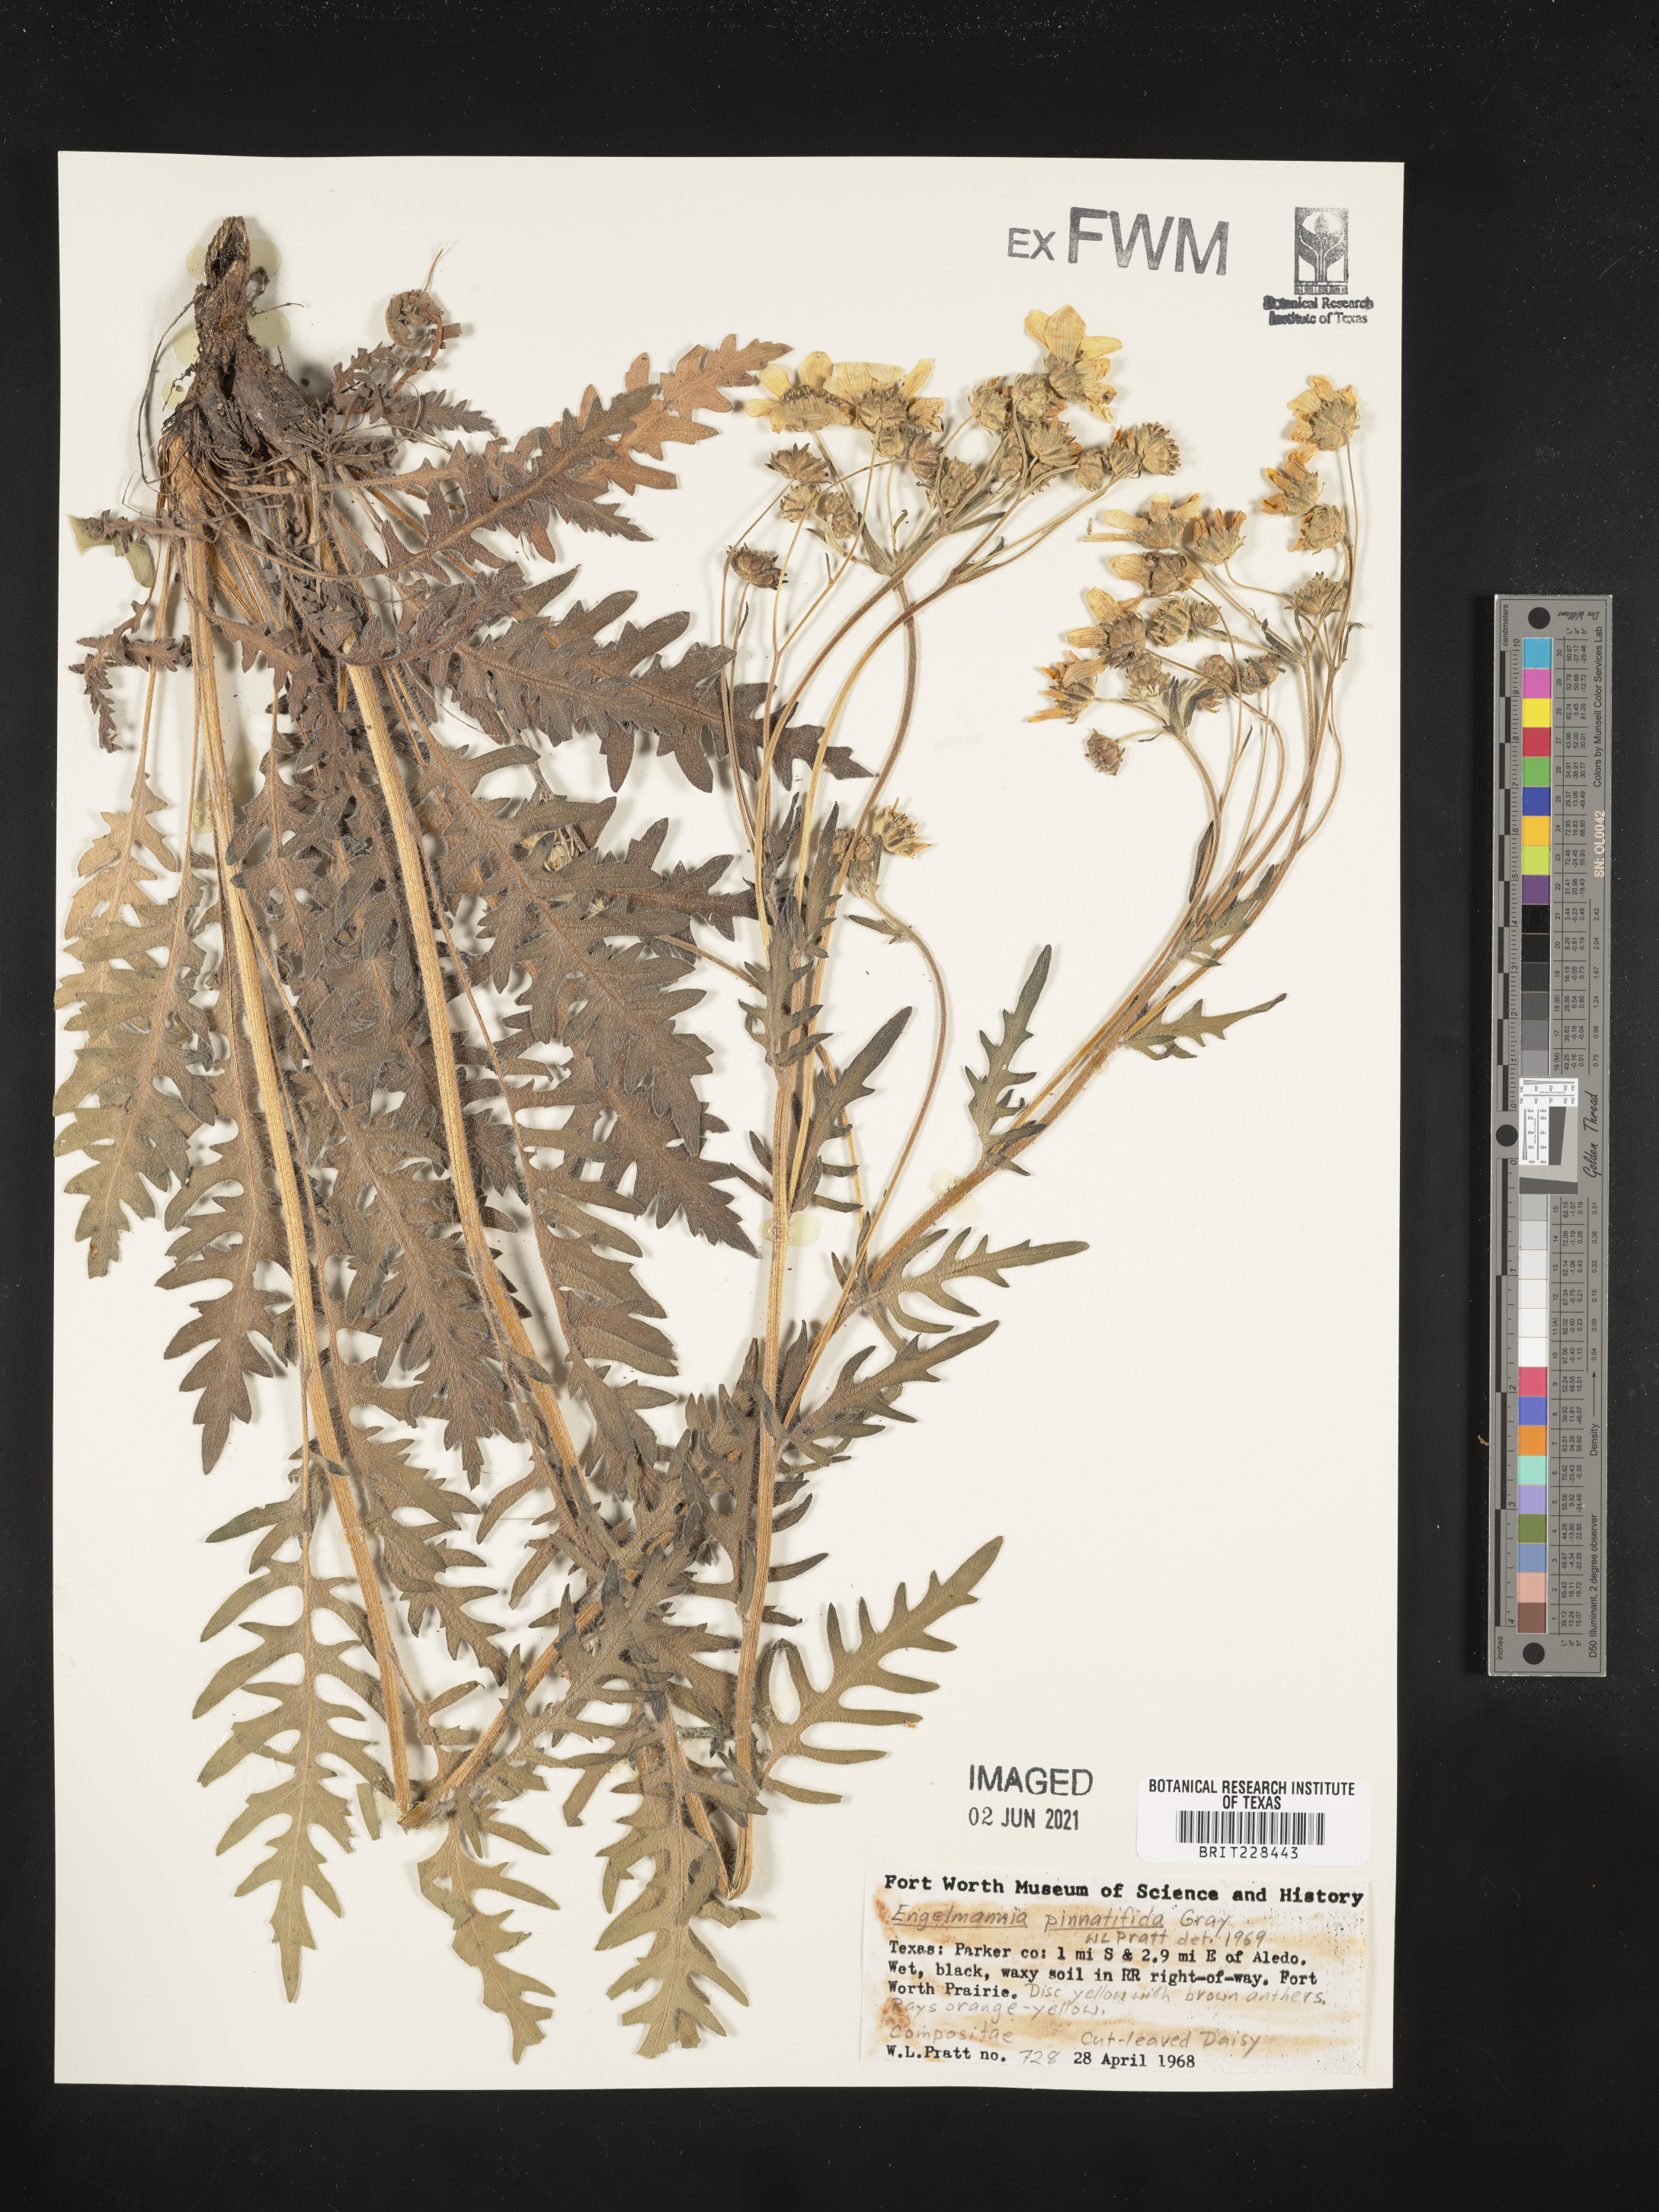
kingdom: Plantae
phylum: Tracheophyta
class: Magnoliopsida
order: Asterales
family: Asteraceae
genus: Engelmannia
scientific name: Engelmannia peristenia
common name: Engelmann's daisy
